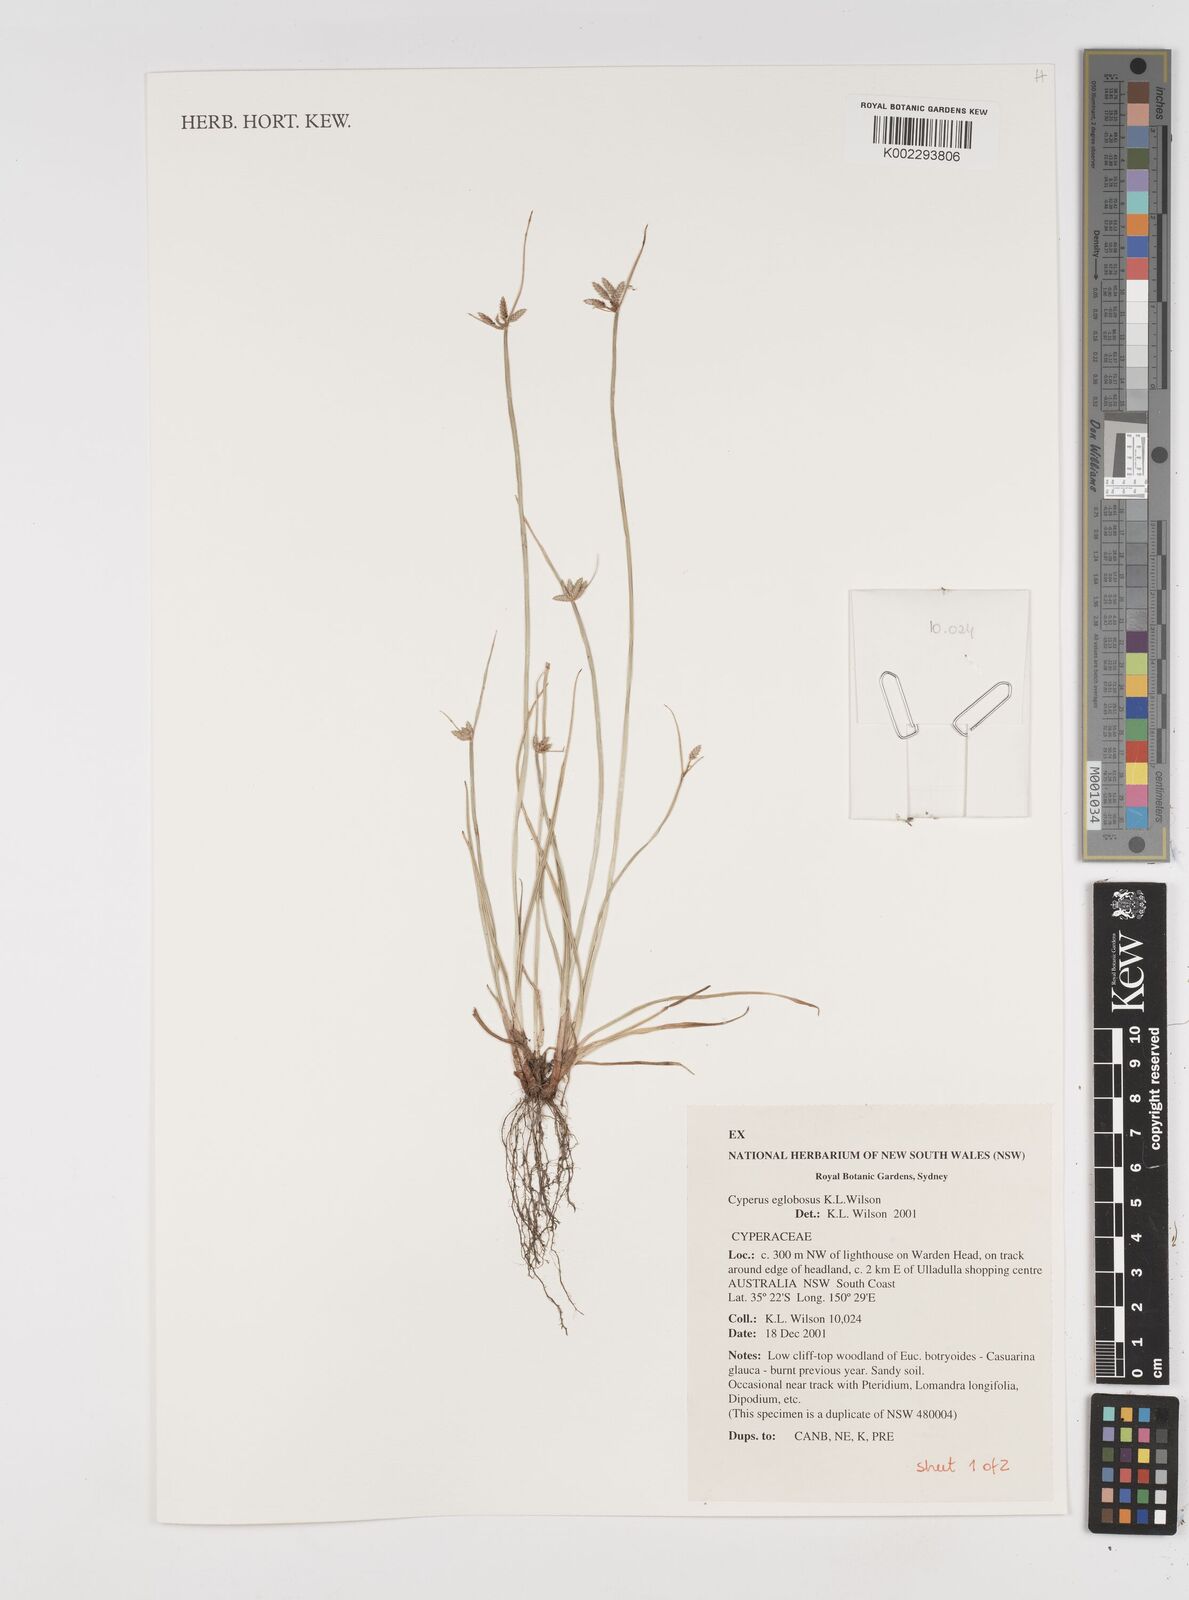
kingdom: Plantae
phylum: Tracheophyta
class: Liliopsida
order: Poales
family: Cyperaceae
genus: Cyperus
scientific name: Cyperus eglobosus
